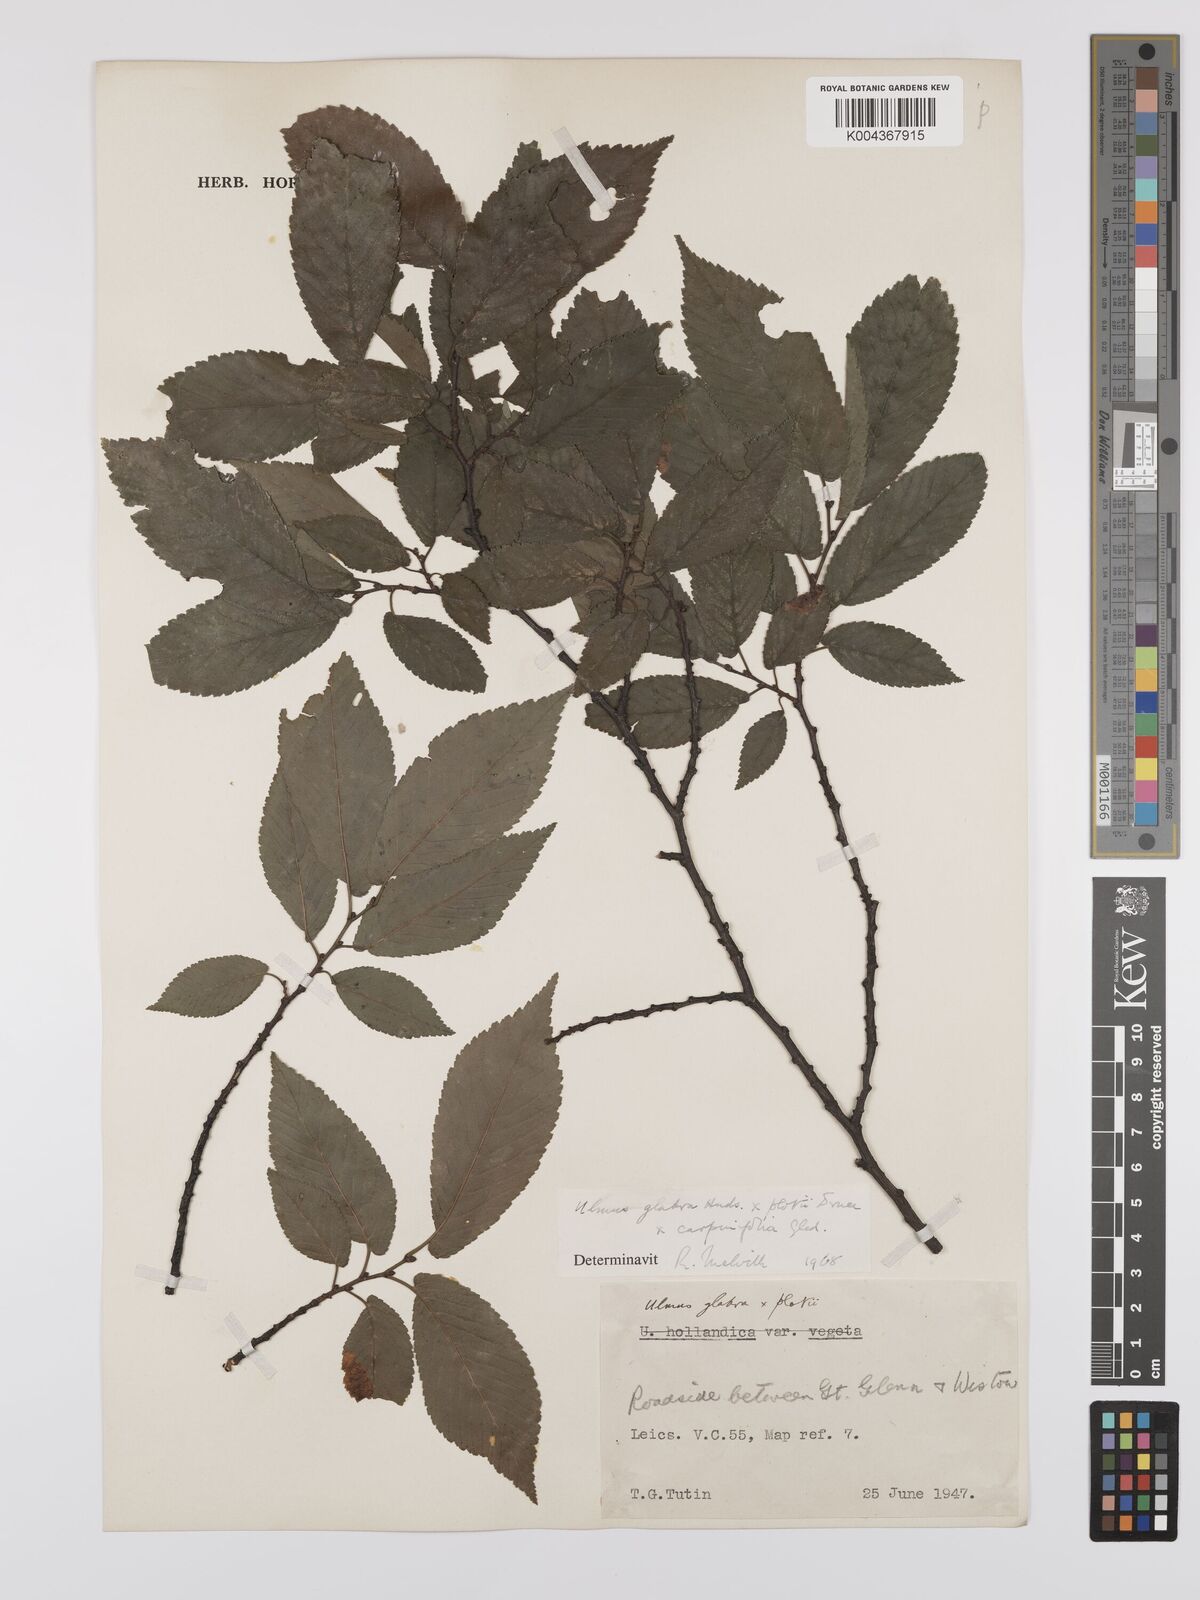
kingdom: Plantae
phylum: Tracheophyta
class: Magnoliopsida
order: Rosales
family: Ulmaceae
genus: Ulmus
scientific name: Ulmus
